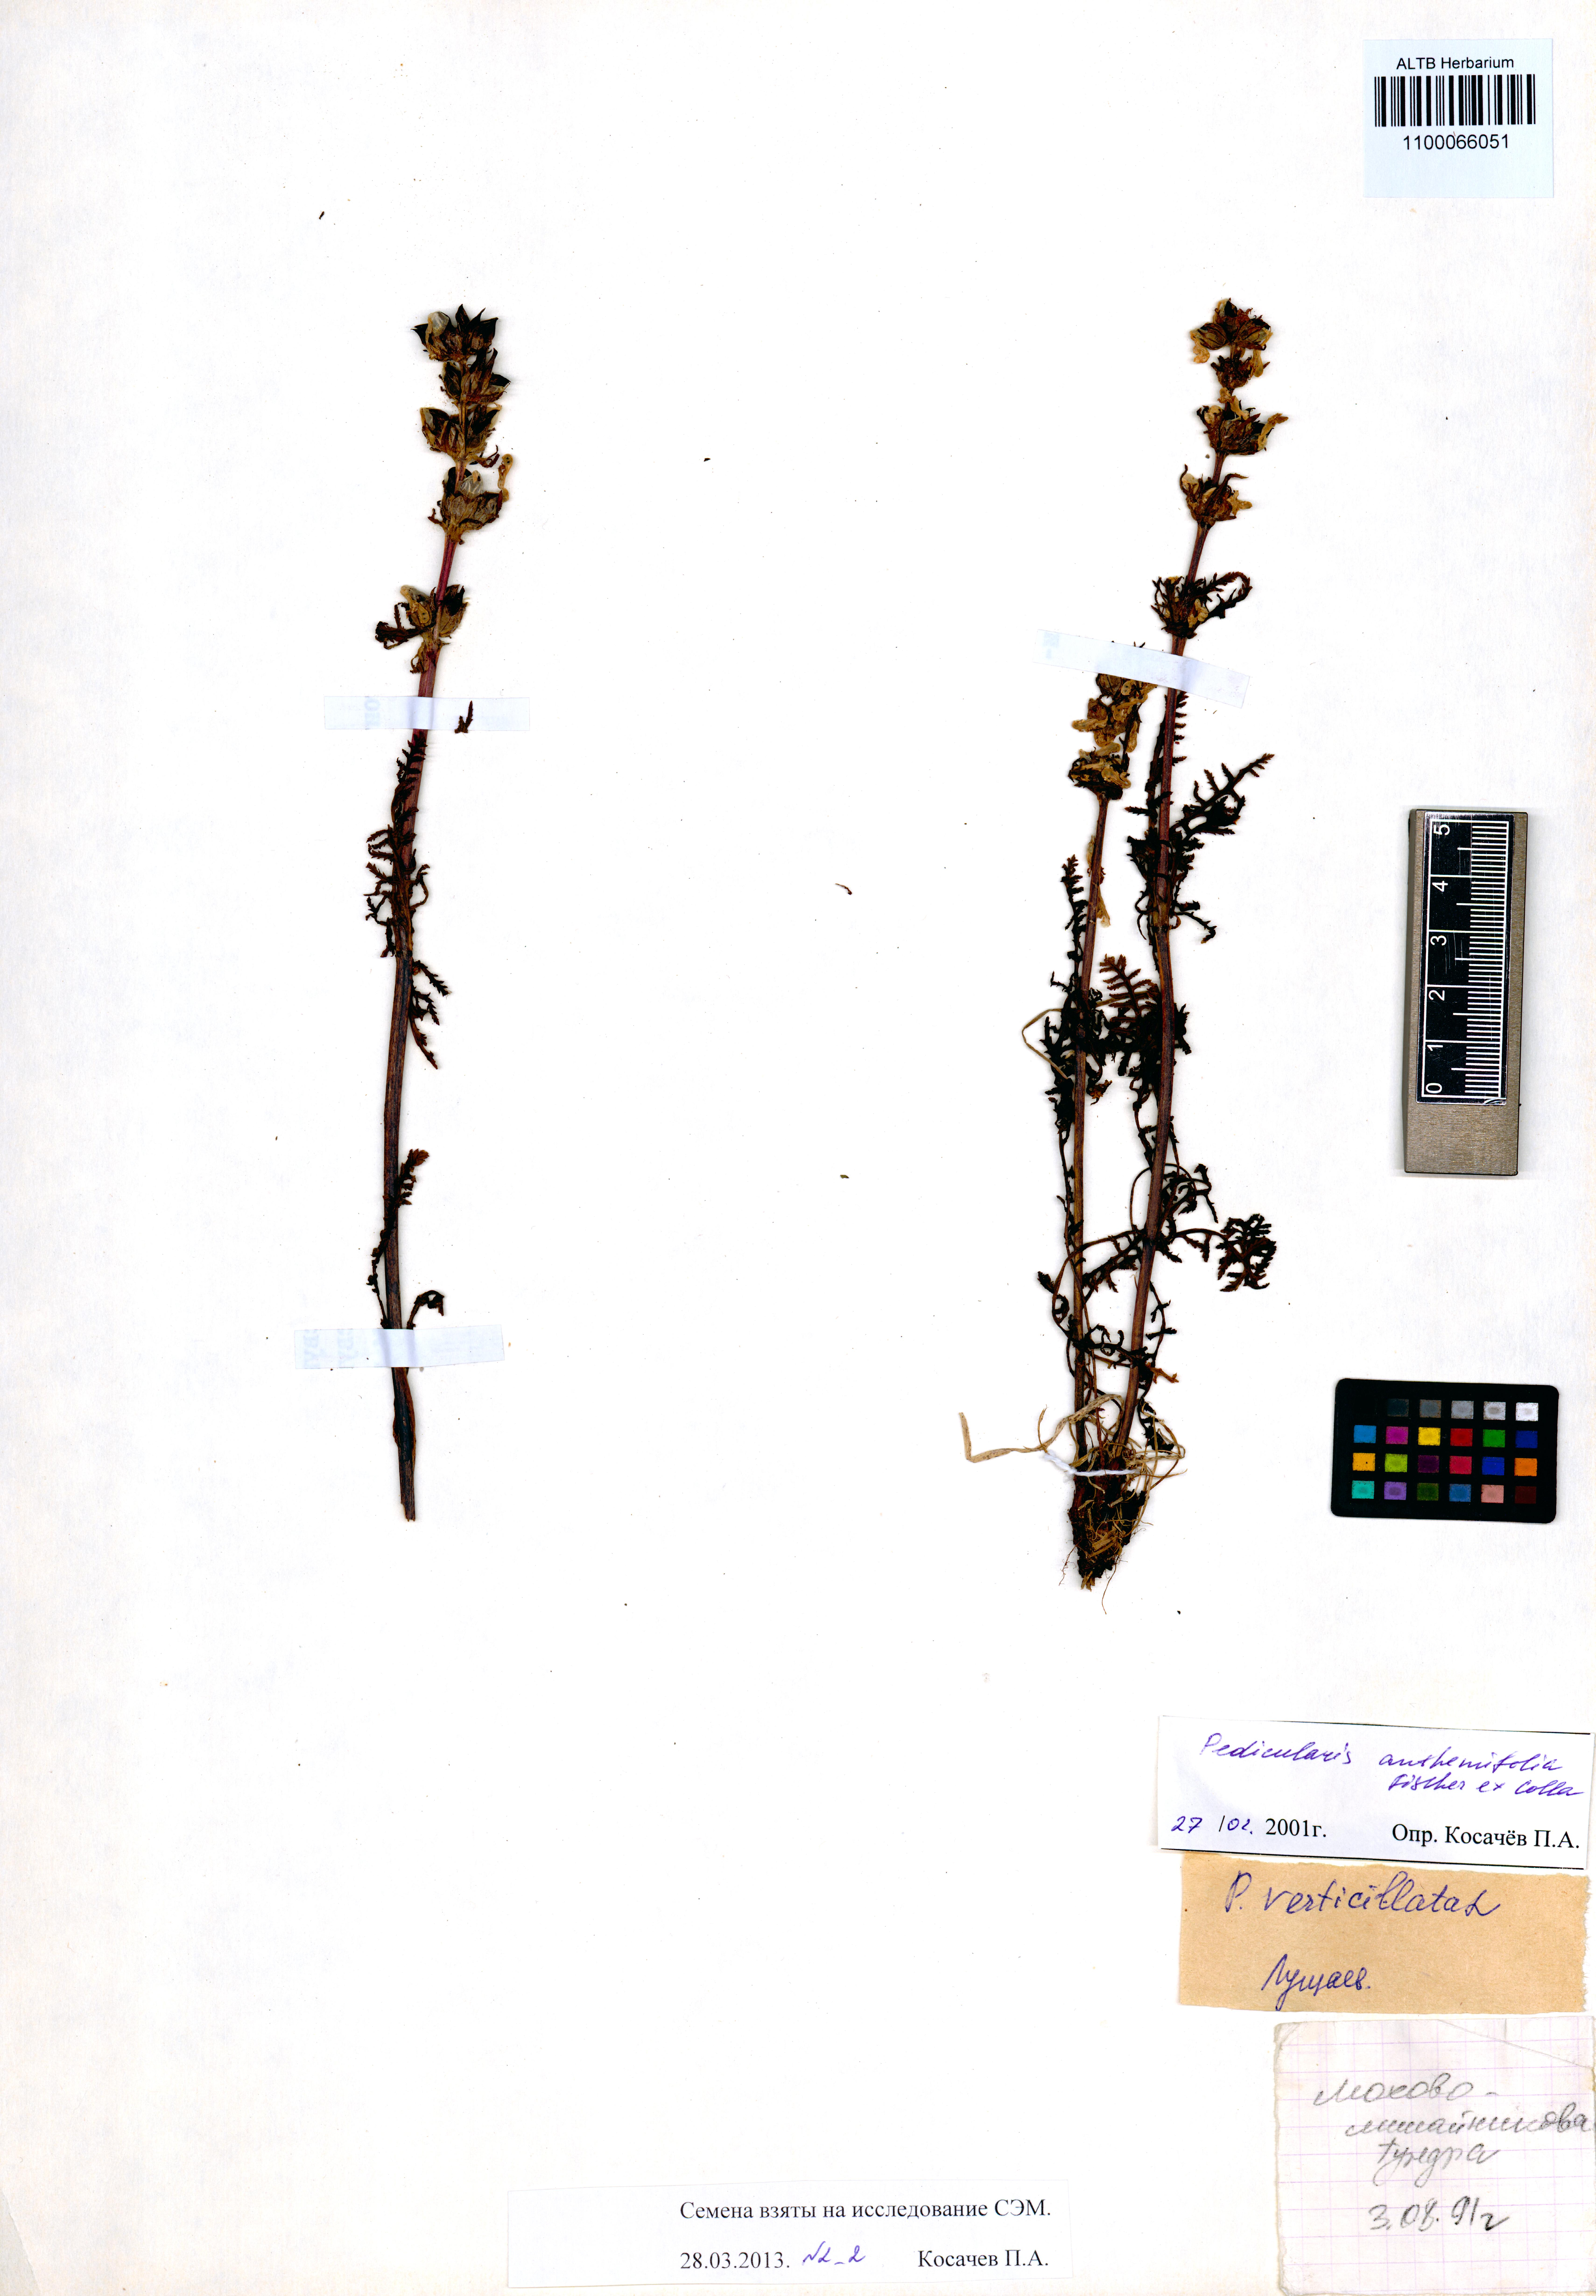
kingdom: Plantae
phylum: Tracheophyta
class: Magnoliopsida
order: Lamiales
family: Orobanchaceae
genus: Pedicularis
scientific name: Pedicularis anthemifolia
